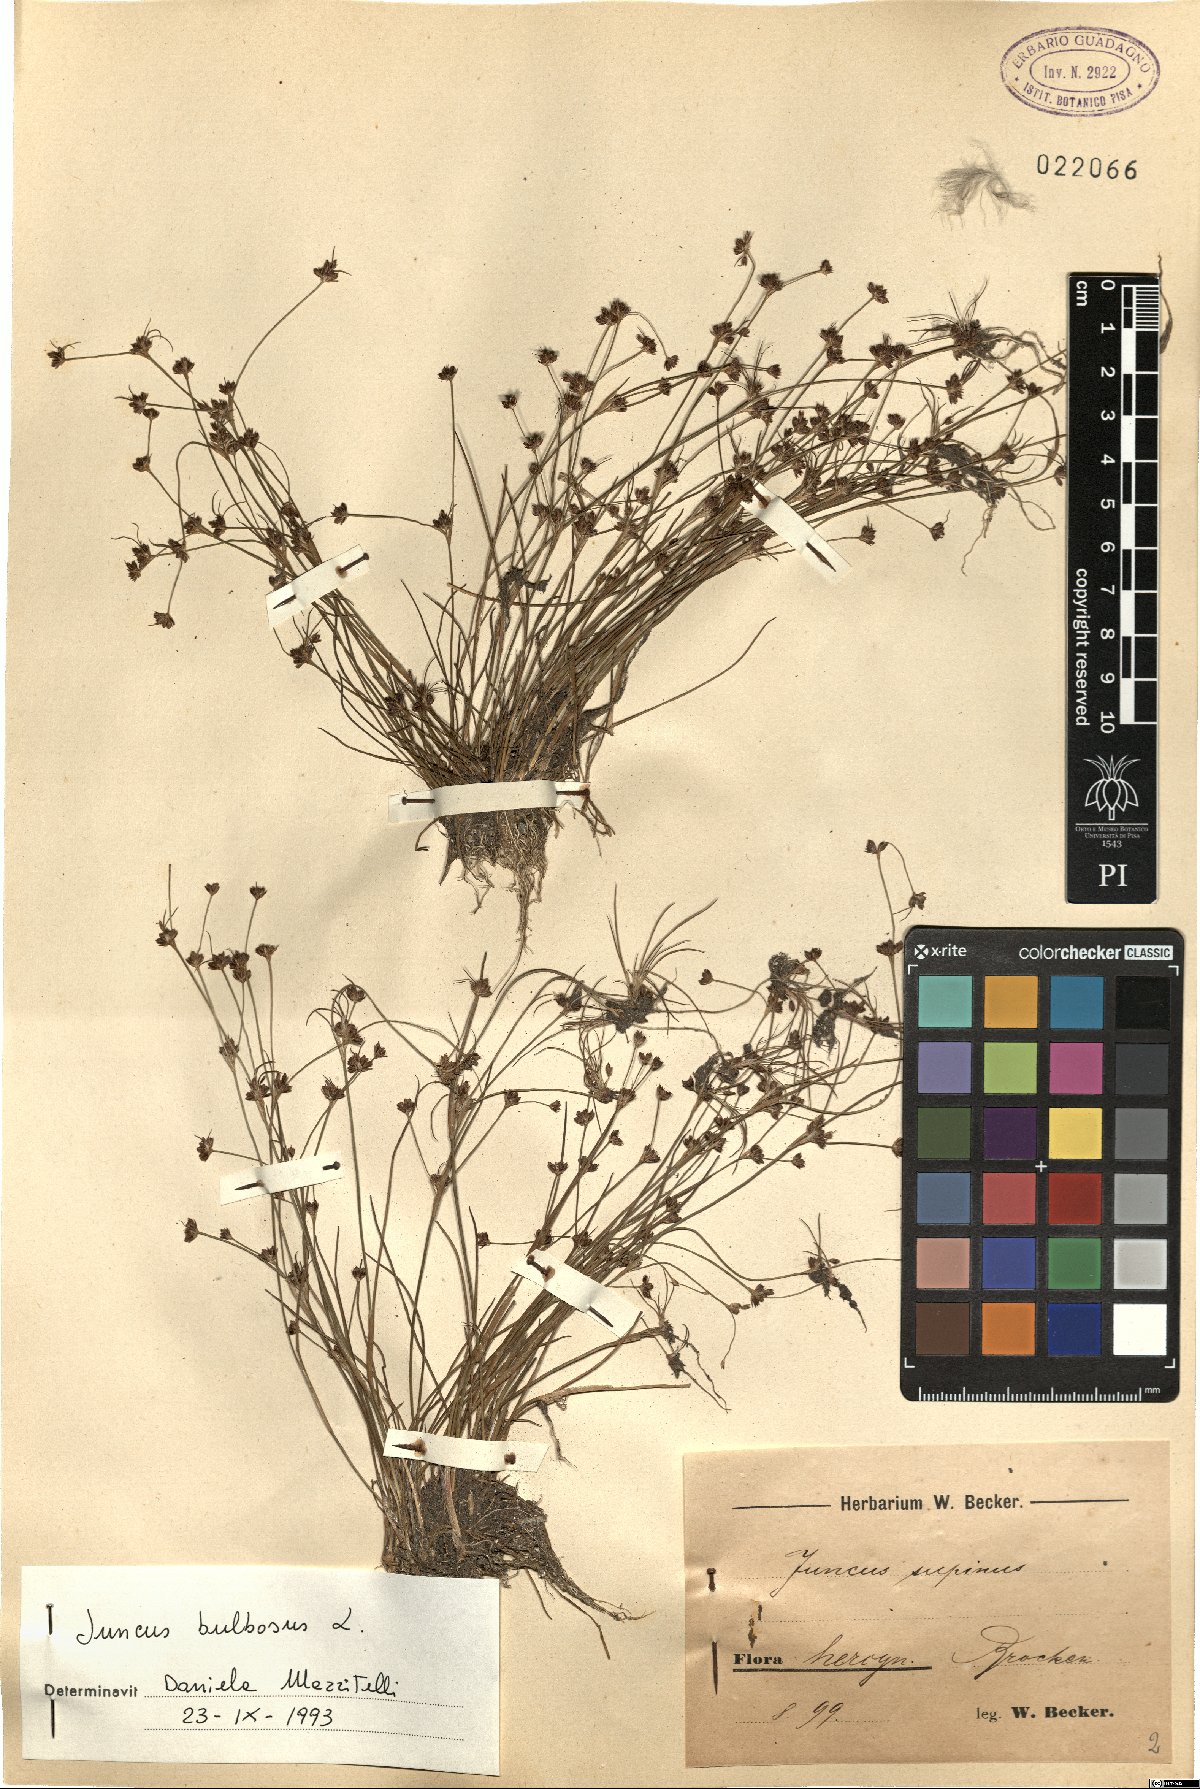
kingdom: Plantae
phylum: Tracheophyta
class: Liliopsida
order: Poales
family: Juncaceae
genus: Juncus
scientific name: Juncus bulbosus
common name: Bulbous rush
